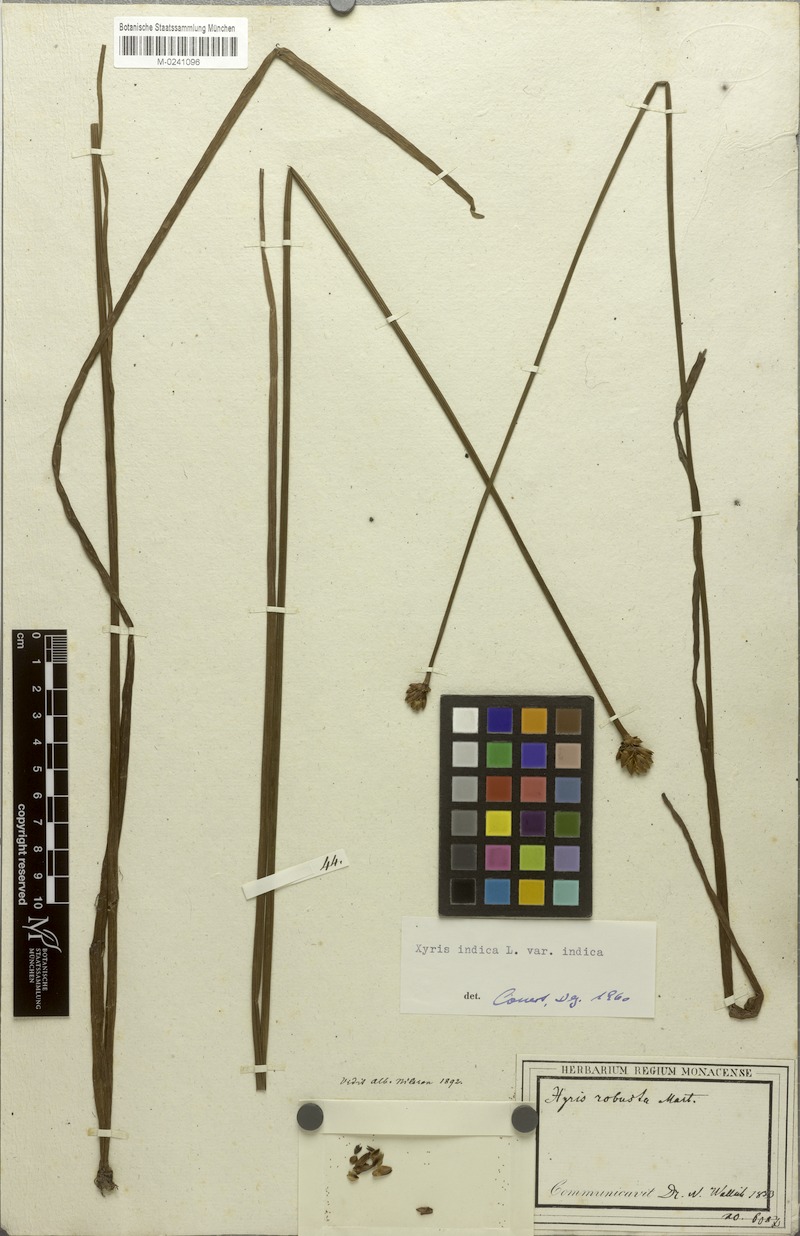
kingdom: Plantae
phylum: Tracheophyta
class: Liliopsida
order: Poales
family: Xyridaceae
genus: Xyris
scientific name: Xyris indica
